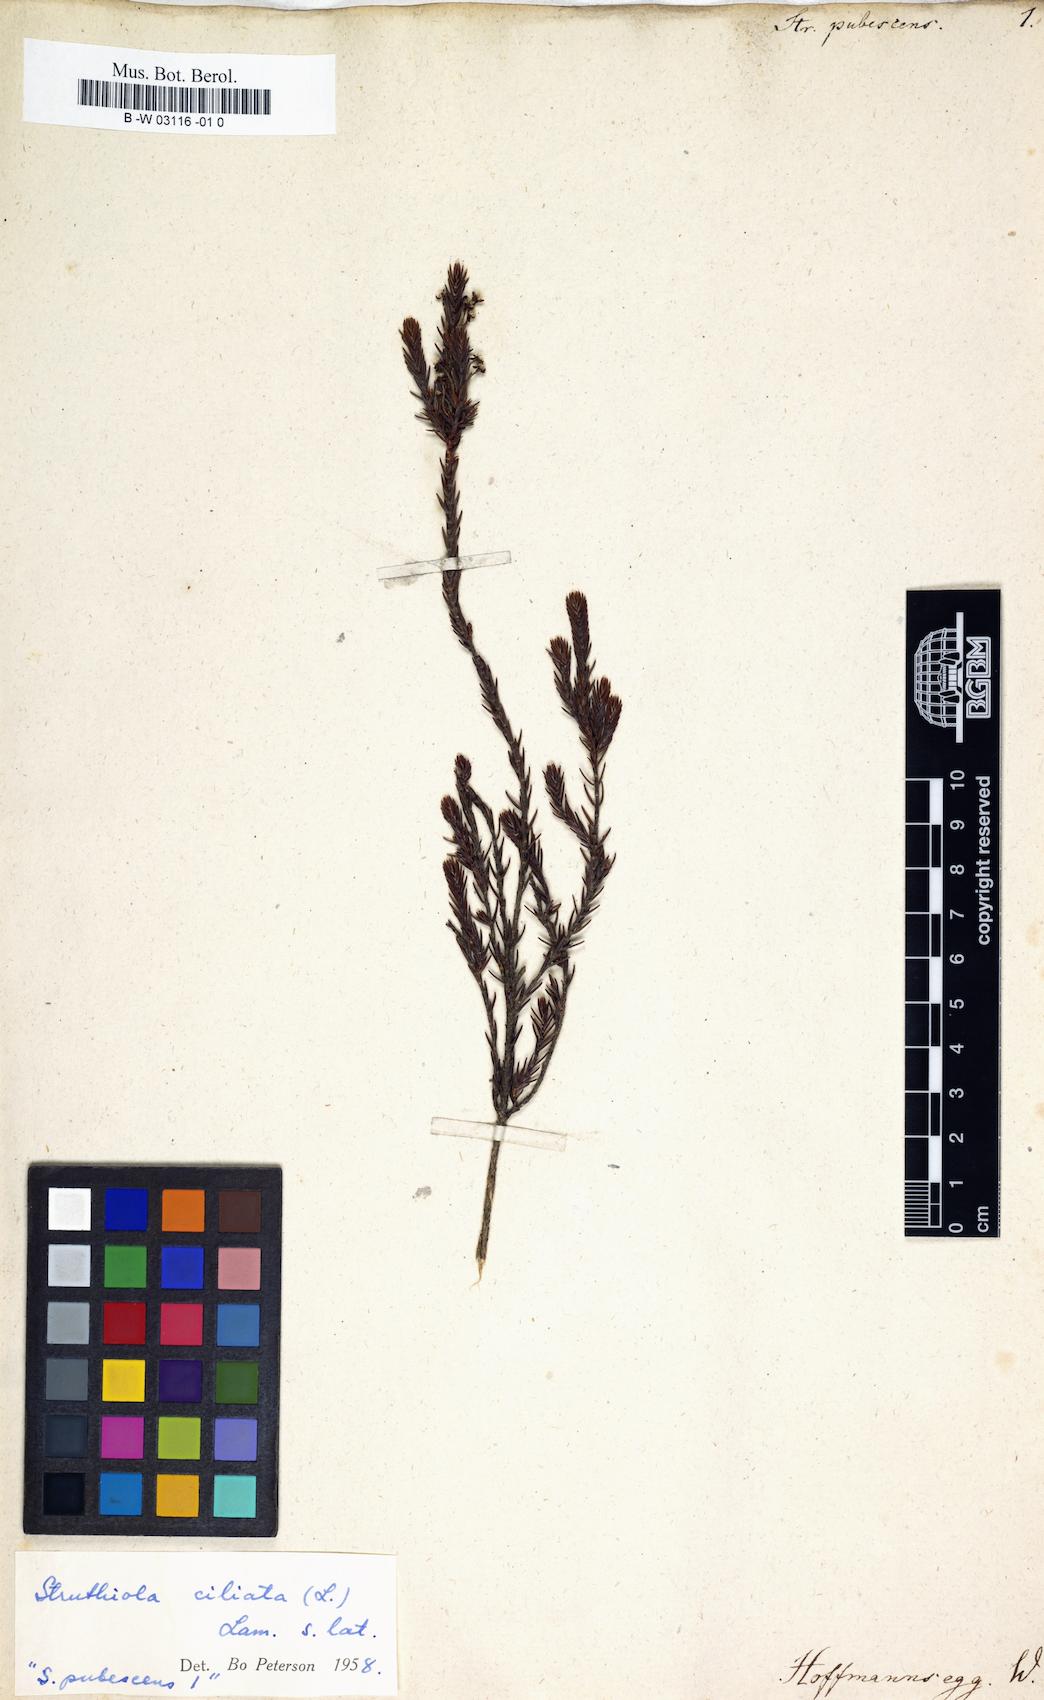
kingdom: Plantae
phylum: Tracheophyta
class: Magnoliopsida
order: Malvales
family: Thymelaeaceae
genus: Struthiola
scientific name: Struthiola ciliata
